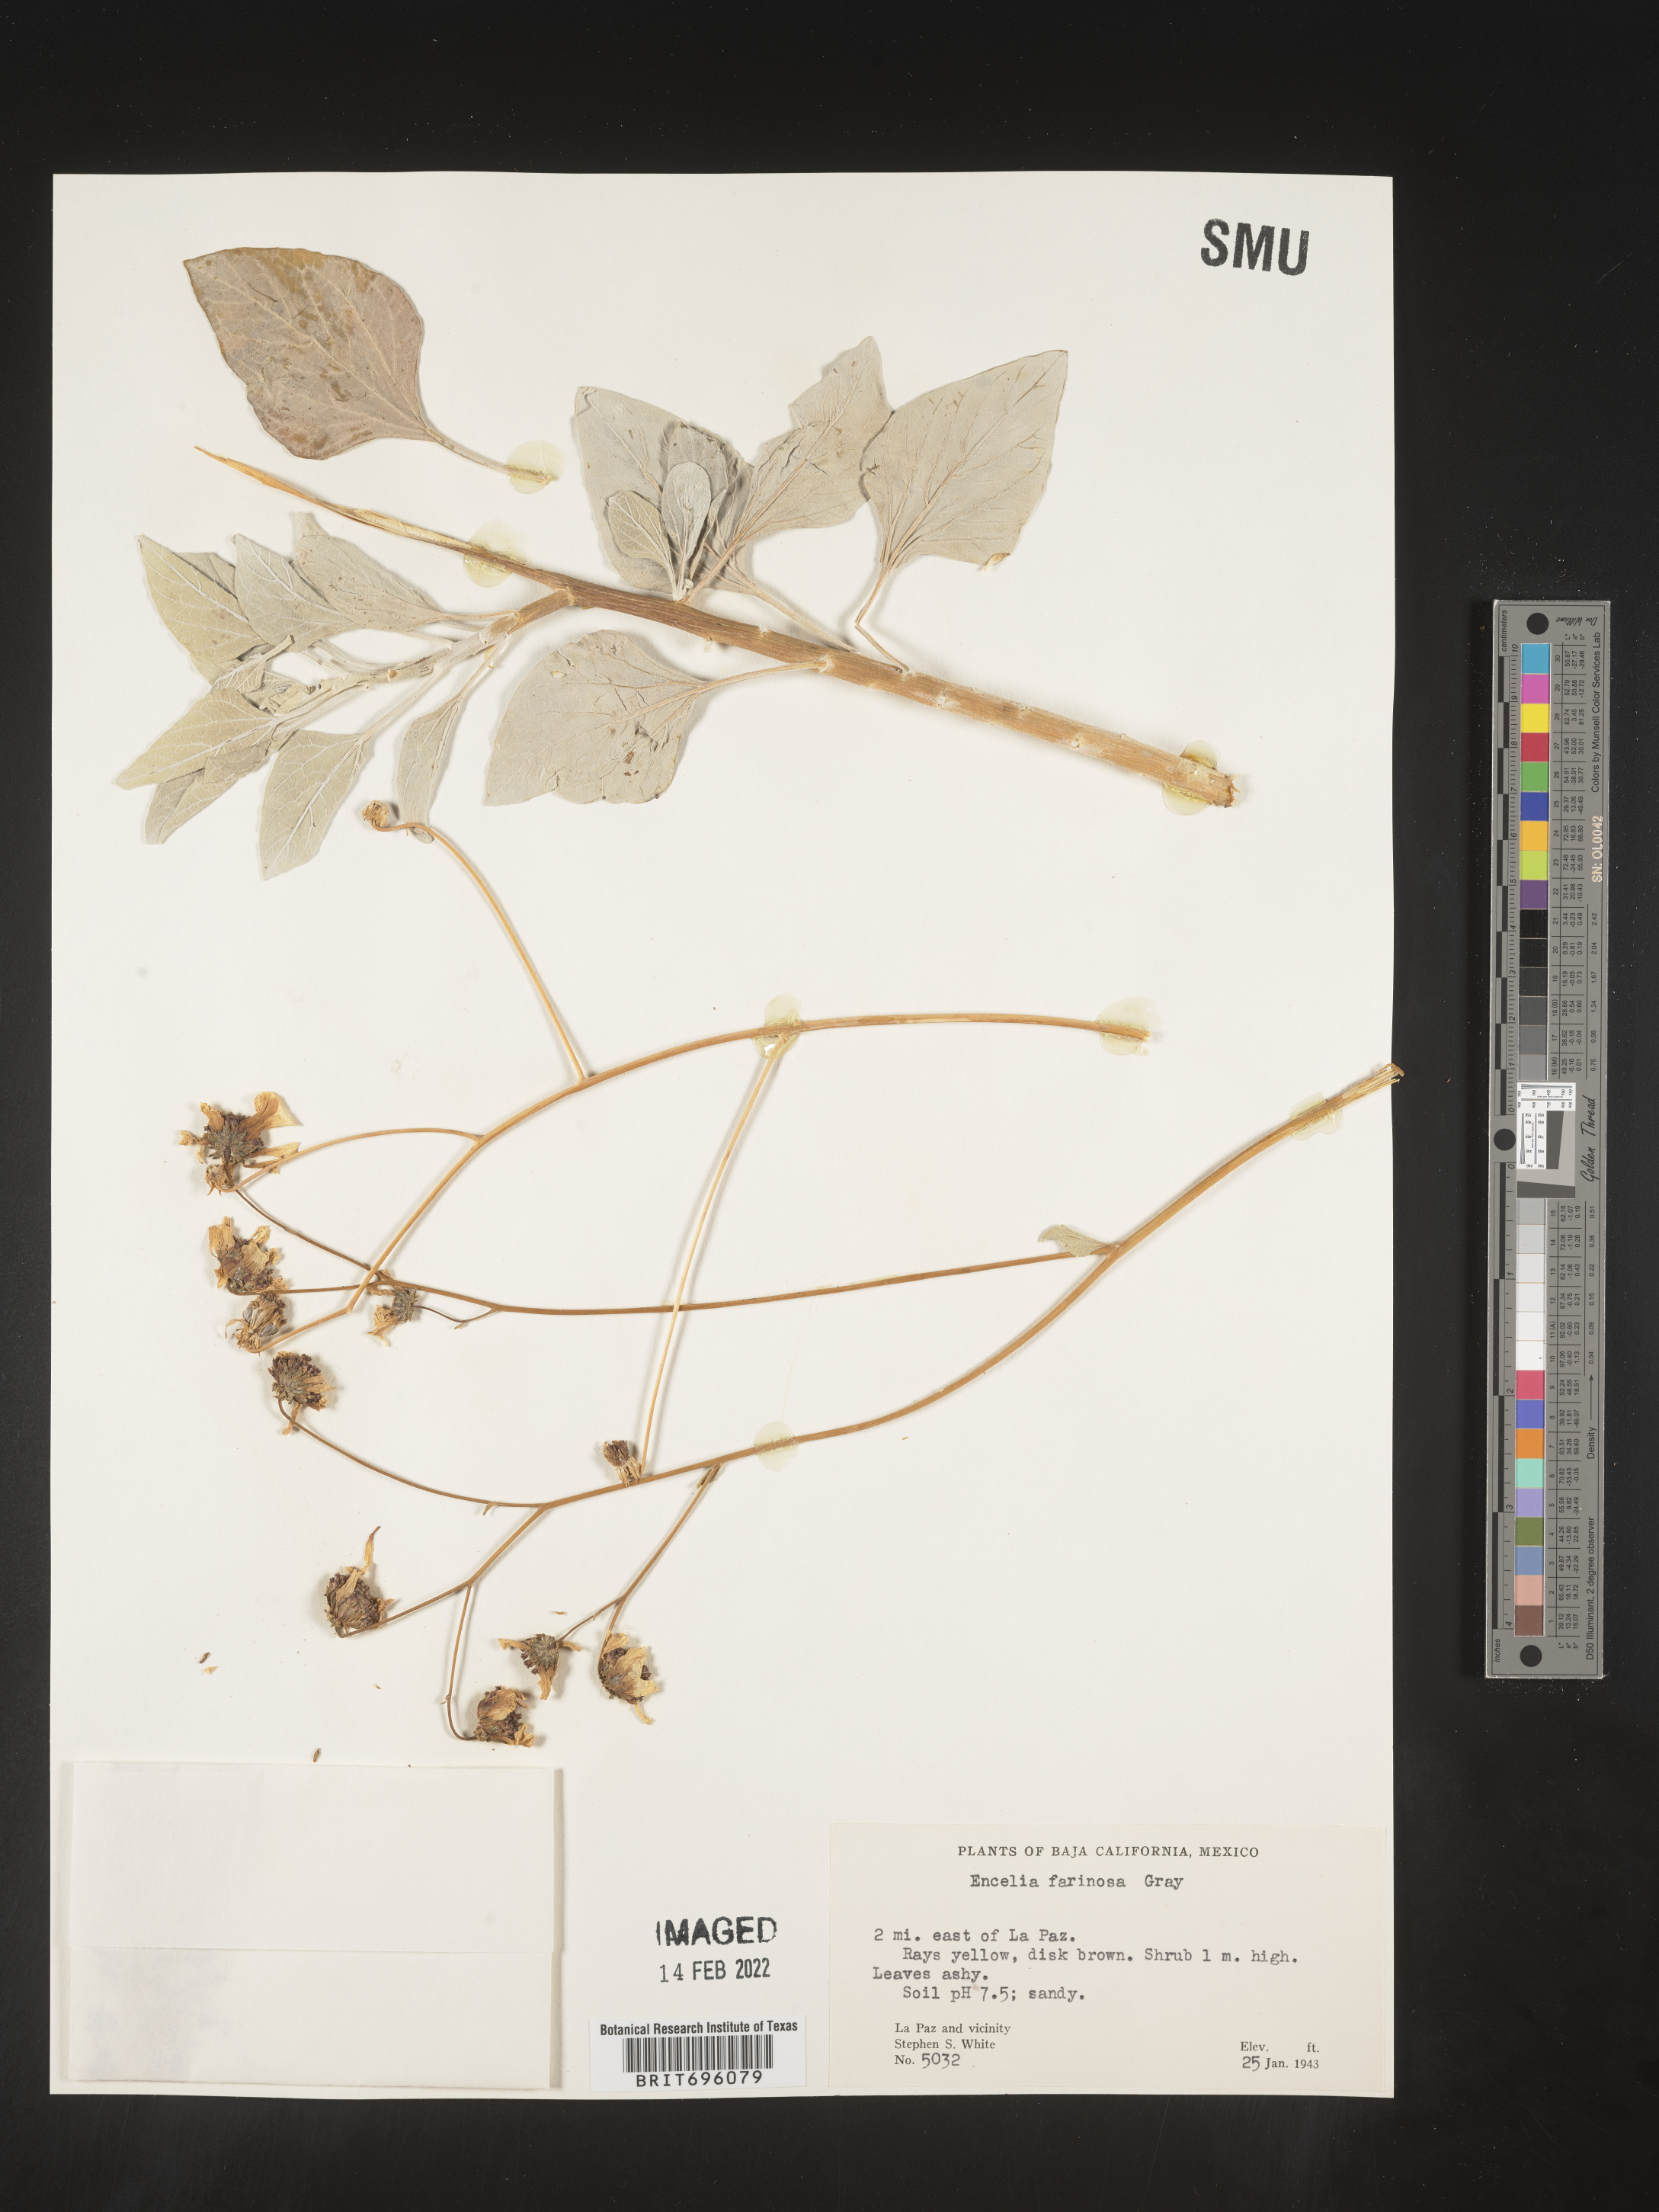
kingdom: Plantae
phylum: Tracheophyta
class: Magnoliopsida
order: Asterales
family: Asteraceae
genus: Encelia
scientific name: Encelia
